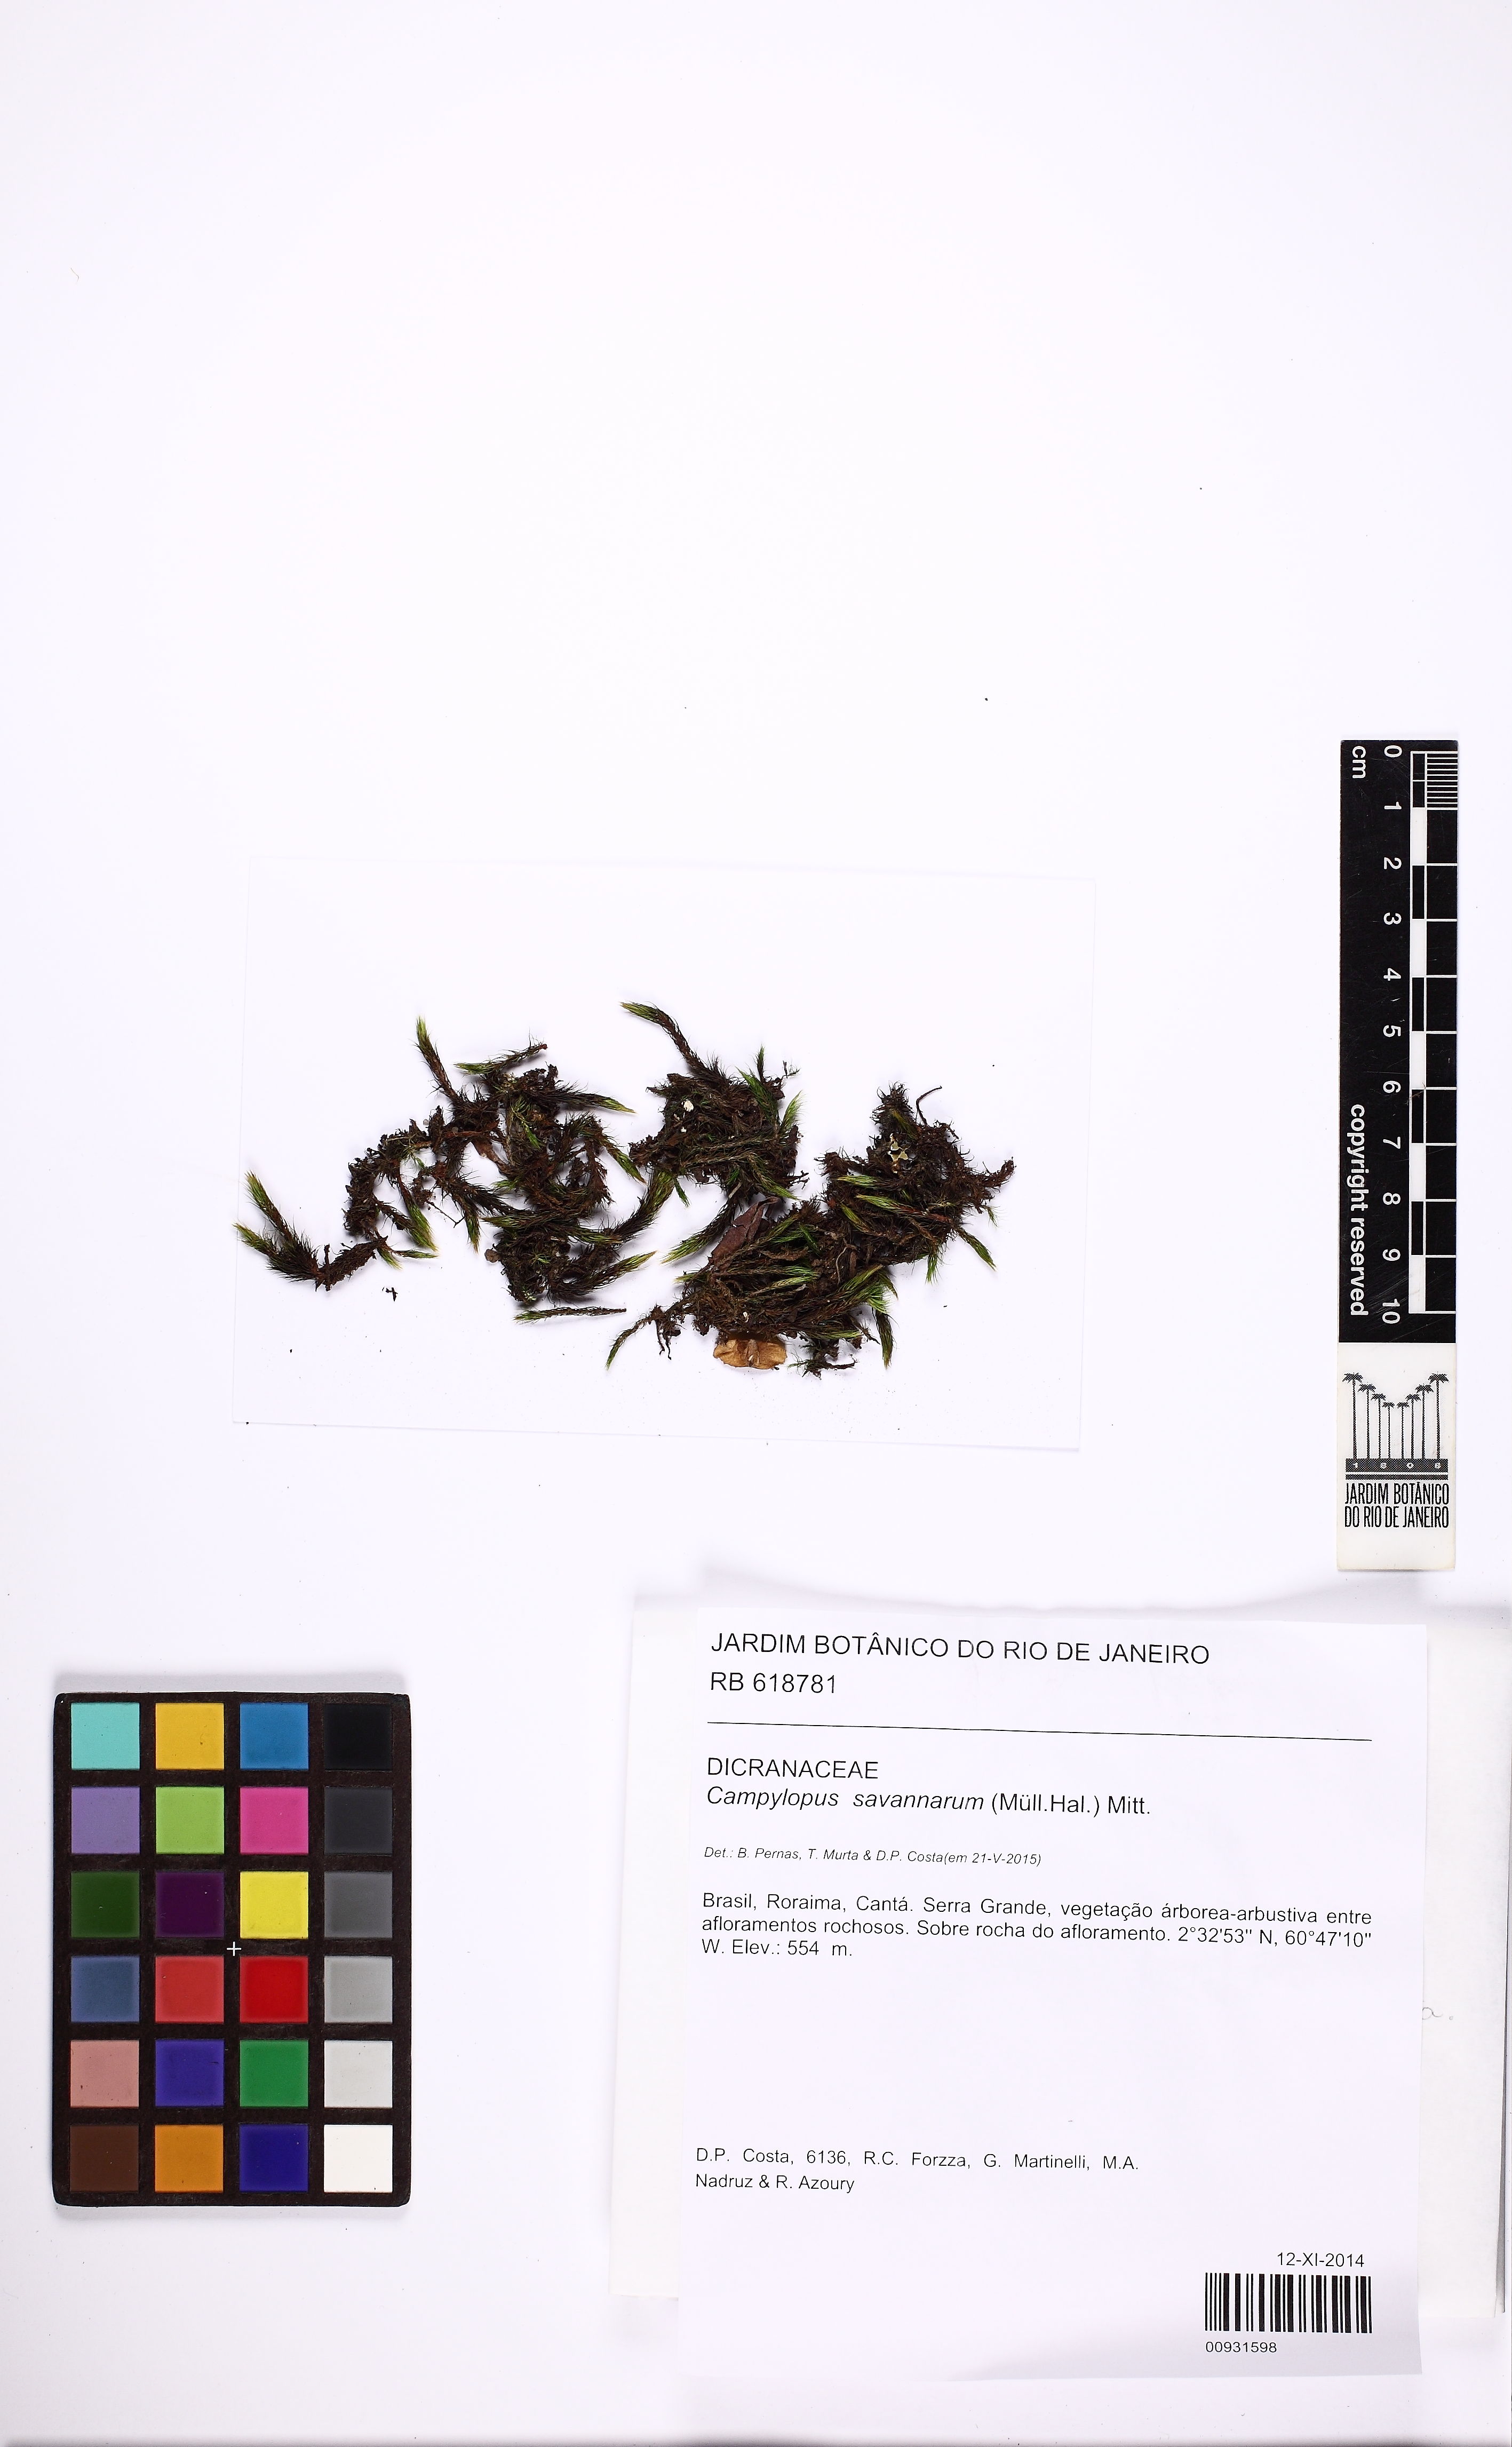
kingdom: Plantae
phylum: Bryophyta
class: Bryopsida
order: Dicranales
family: Leucobryaceae
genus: Campylopus
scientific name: Campylopus savannarum
